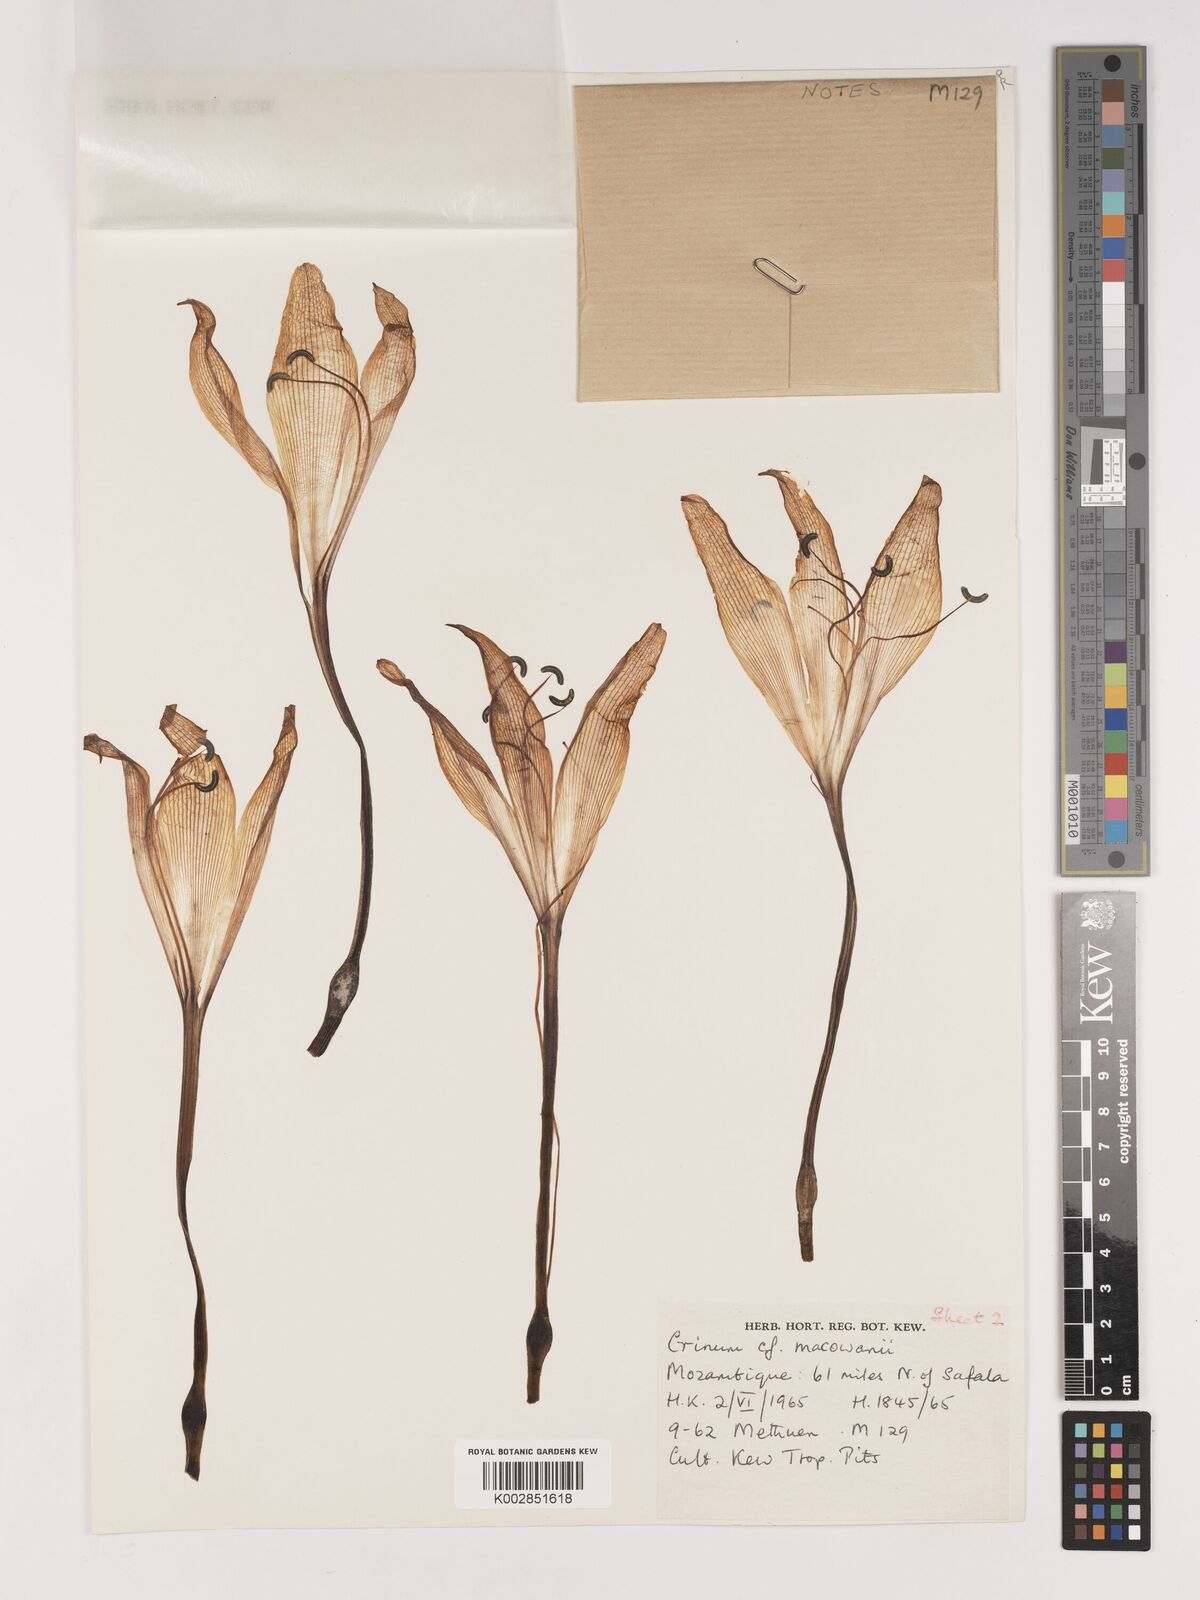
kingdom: Plantae
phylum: Tracheophyta
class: Liliopsida
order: Asparagales
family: Amaryllidaceae
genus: Crinum
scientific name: Crinum macowanii
